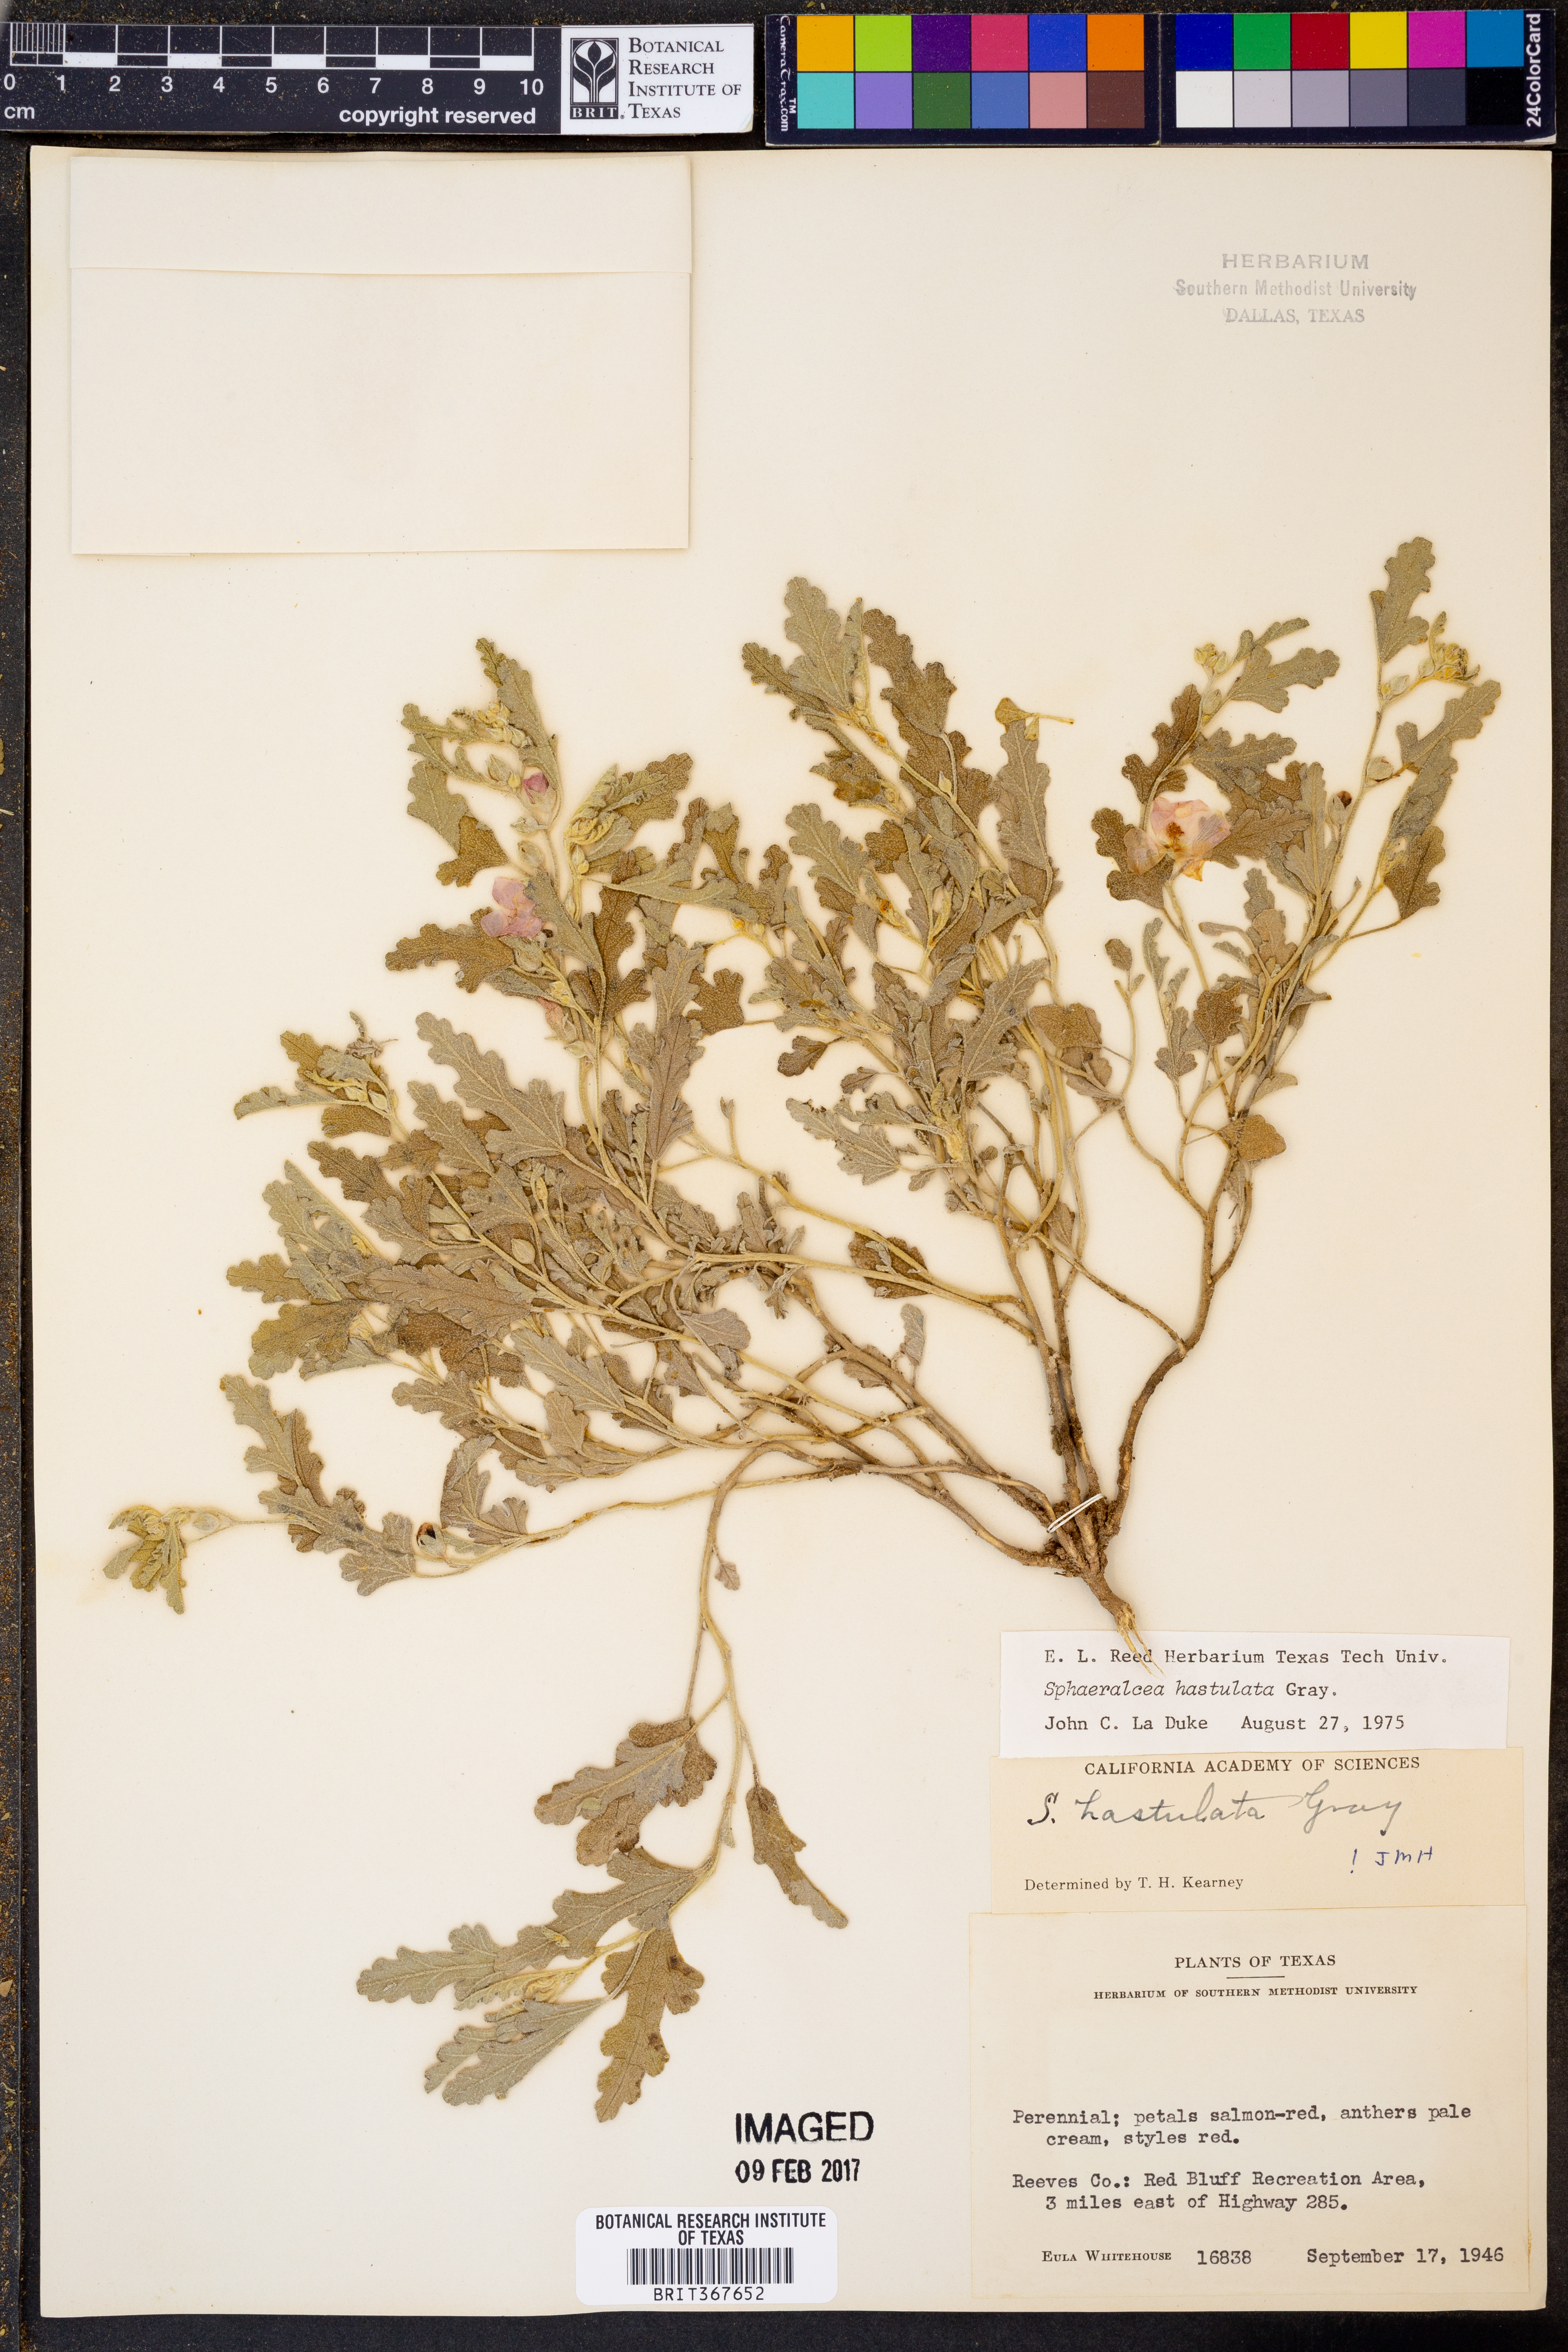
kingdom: Plantae
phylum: Tracheophyta
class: Magnoliopsida
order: Malvales
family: Malvaceae
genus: Sphaeralcea
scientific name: Sphaeralcea hastulata
